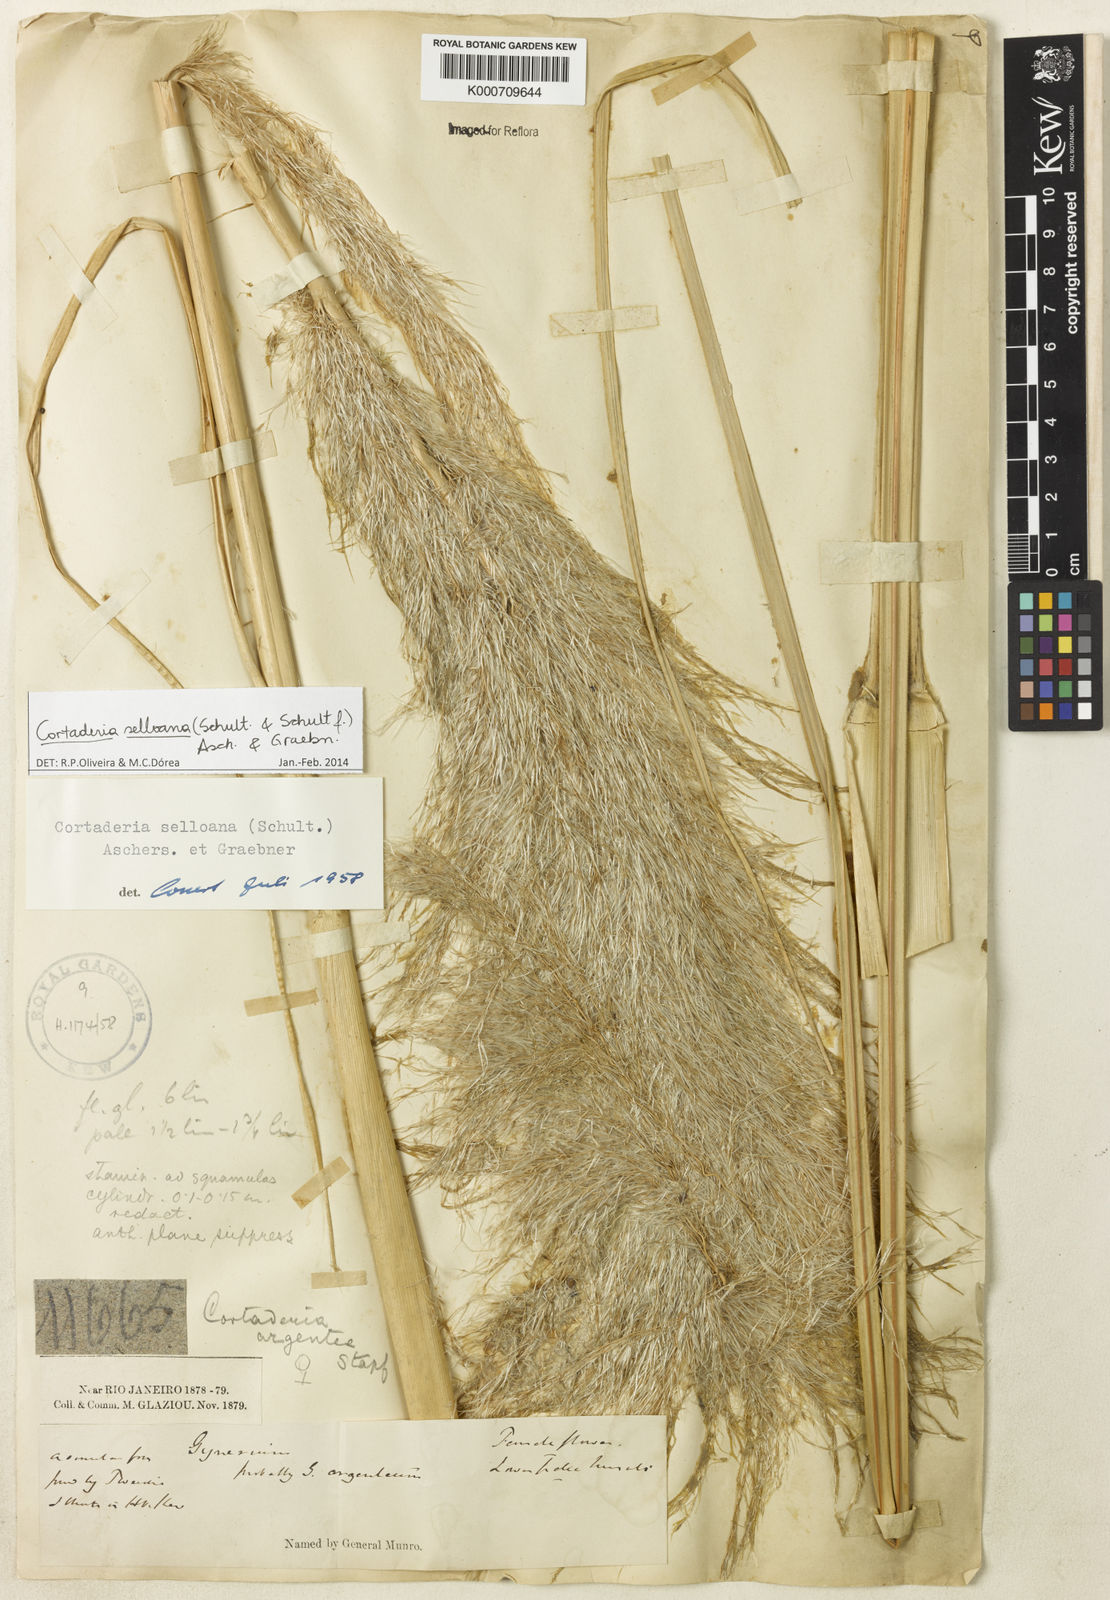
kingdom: Plantae
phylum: Tracheophyta
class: Liliopsida
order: Poales
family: Poaceae
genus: Cortaderia
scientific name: Cortaderia selloana
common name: Uruguayan pampas grass
